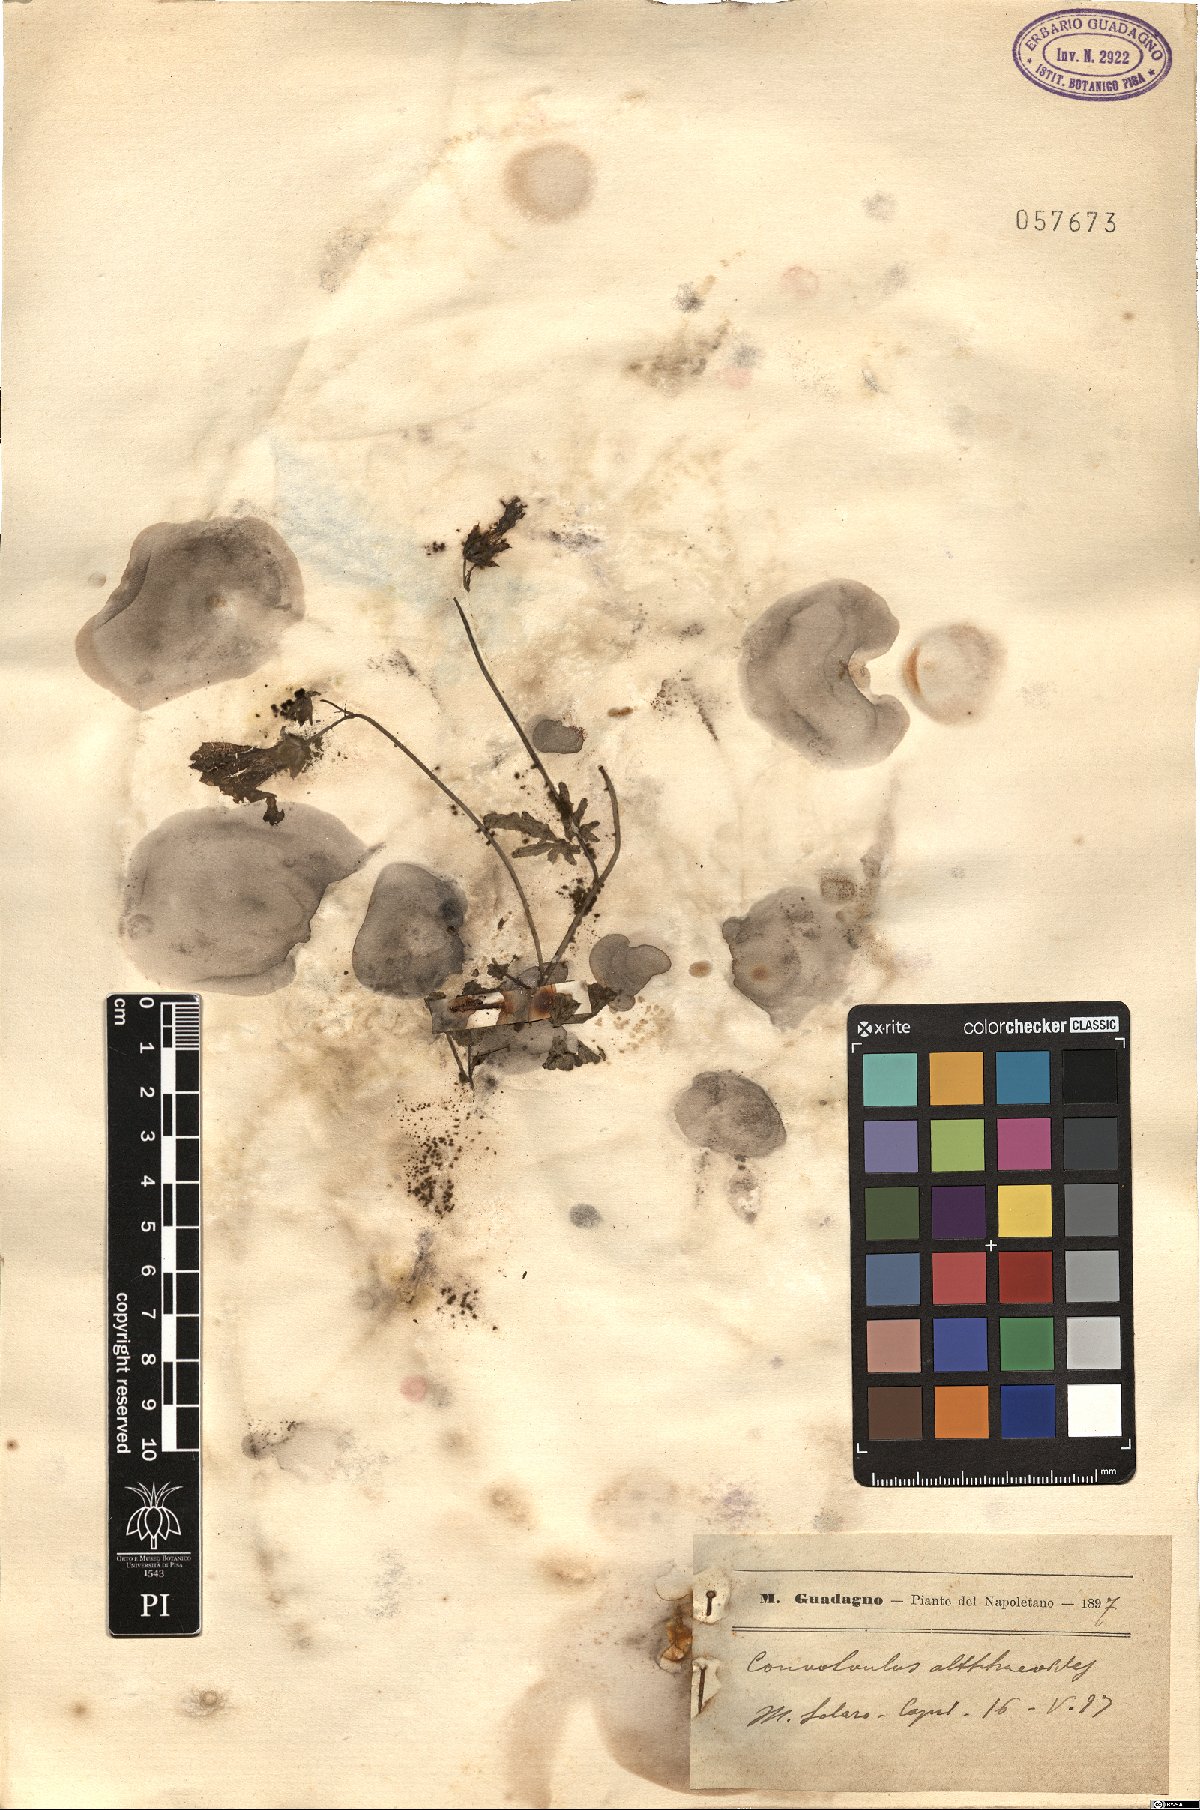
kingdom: Plantae
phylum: Tracheophyta
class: Magnoliopsida
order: Solanales
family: Convolvulaceae
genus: Convolvulus
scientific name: Convolvulus althaeoides
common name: Mallow bindweed
